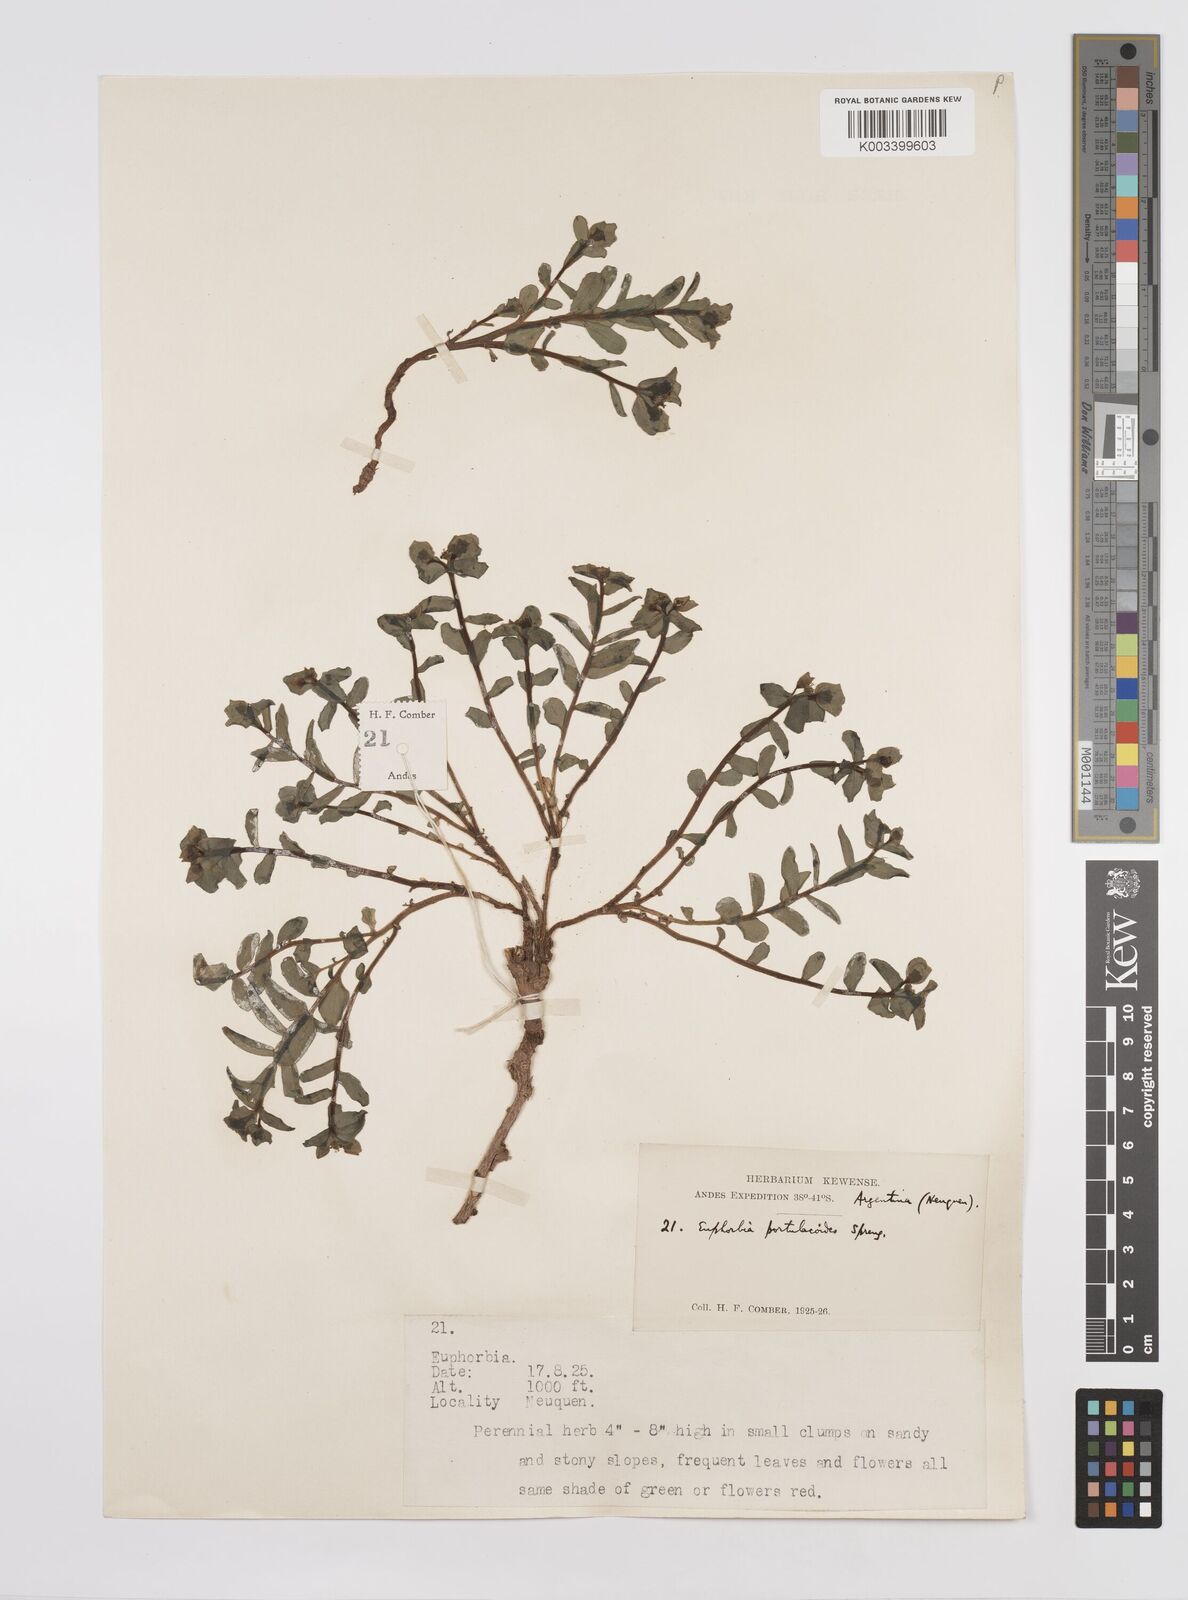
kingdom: Plantae
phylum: Tracheophyta
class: Magnoliopsida
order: Malpighiales
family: Euphorbiaceae
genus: Euphorbia
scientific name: Euphorbia portulacoides
